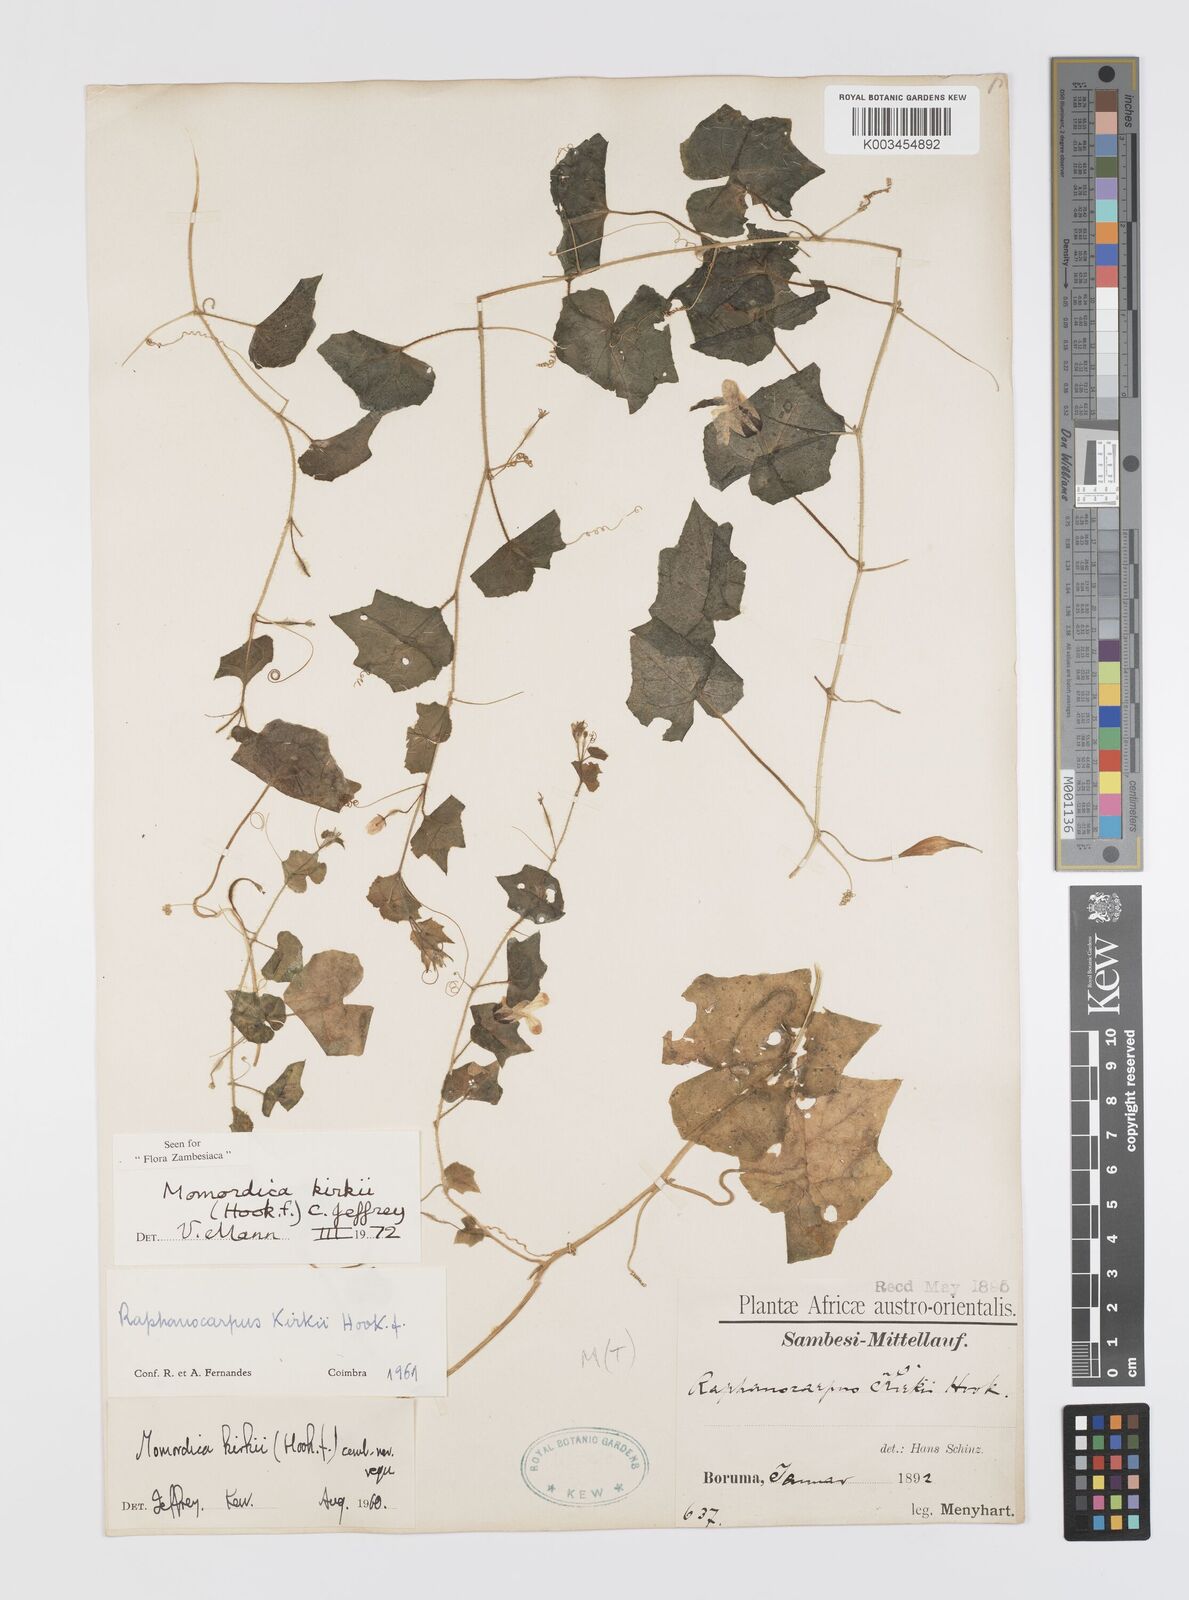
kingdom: Plantae
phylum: Tracheophyta
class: Magnoliopsida
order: Cucurbitales
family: Cucurbitaceae
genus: Momordica
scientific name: Momordica kirkii
